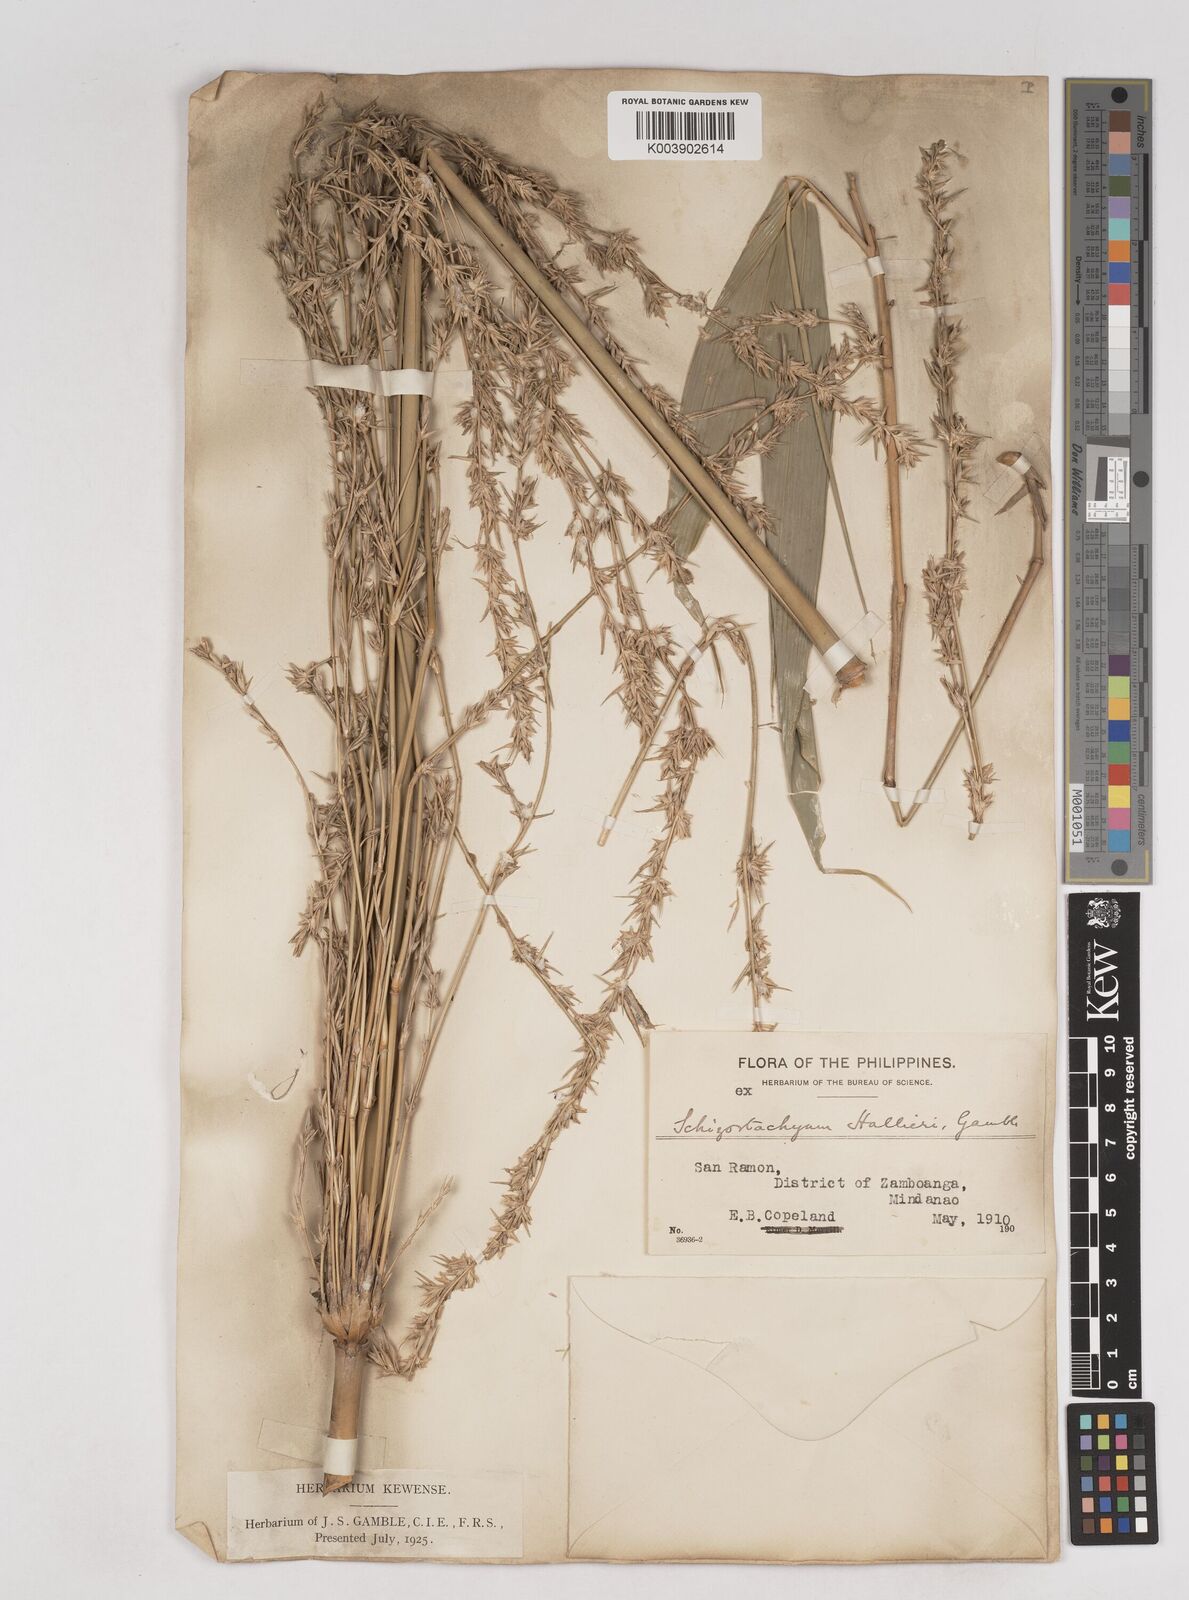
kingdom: Plantae
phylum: Tracheophyta
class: Liliopsida
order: Poales
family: Poaceae
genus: Schizostachyum
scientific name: Schizostachyum lima
